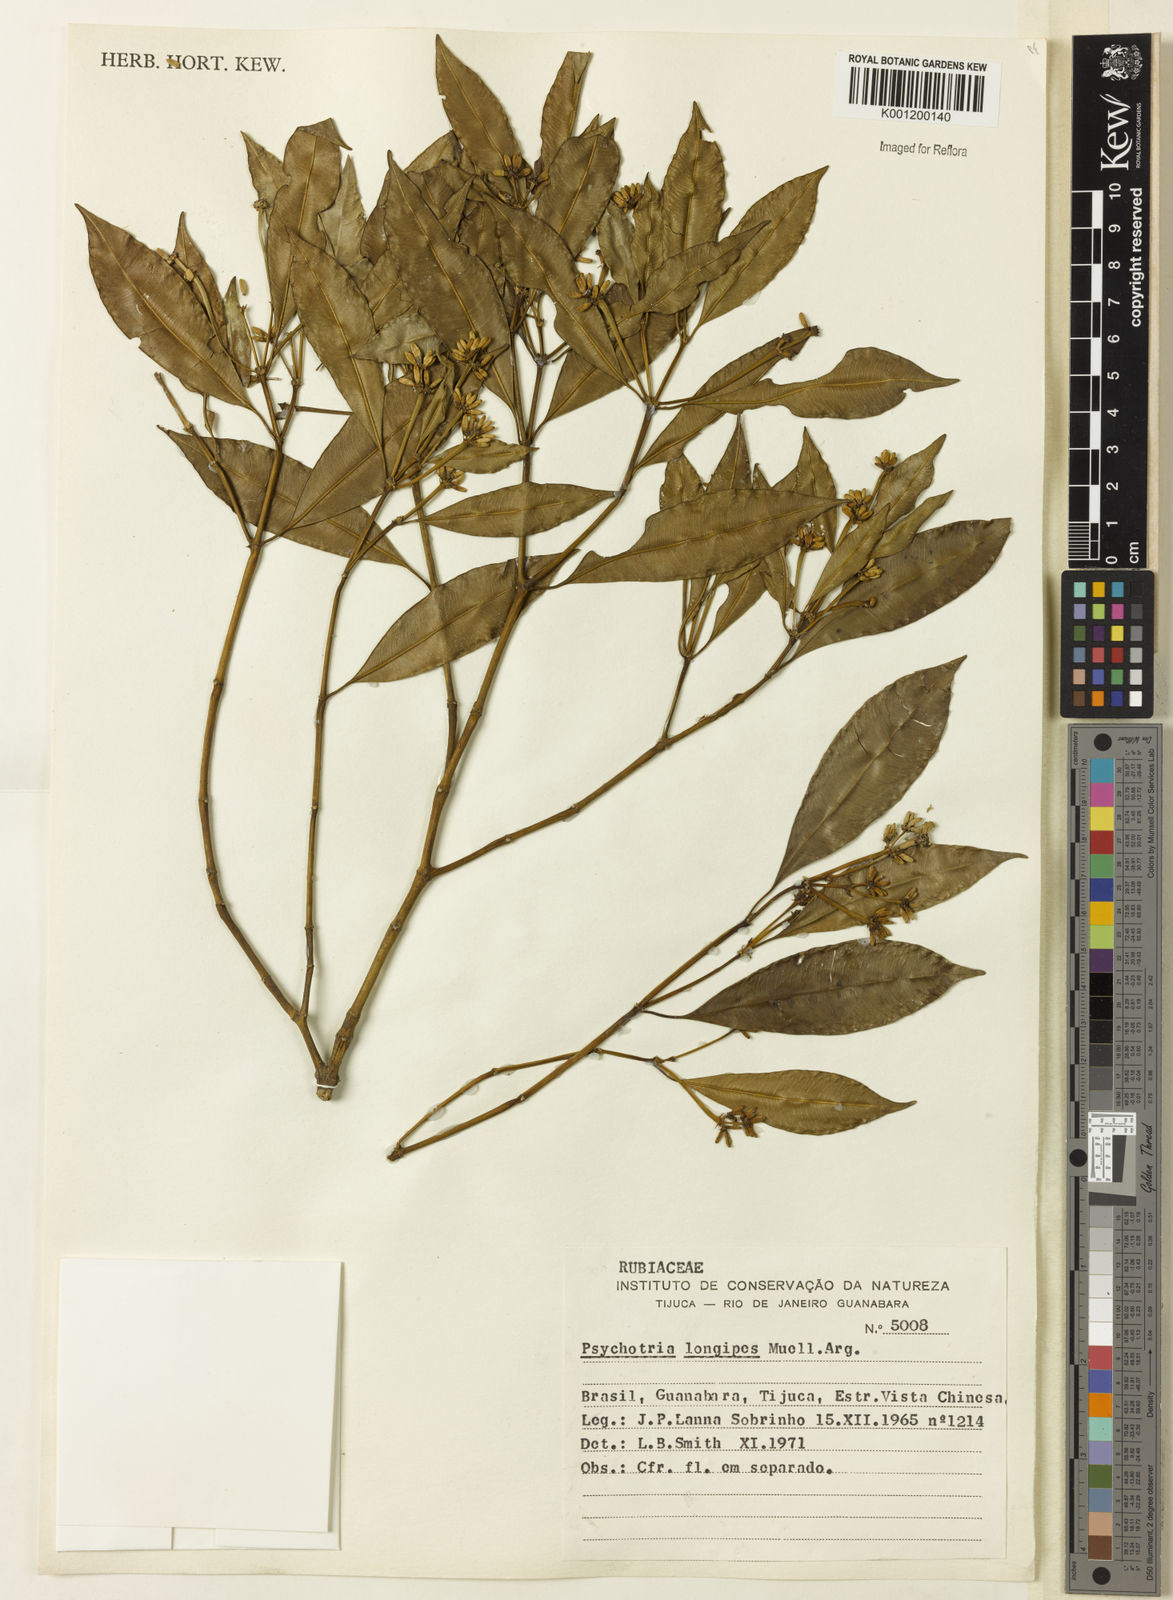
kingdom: Plantae
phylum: Tracheophyta
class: Magnoliopsida
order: Gentianales
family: Rubiaceae
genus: Palicourea
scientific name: Palicourea sessilis
